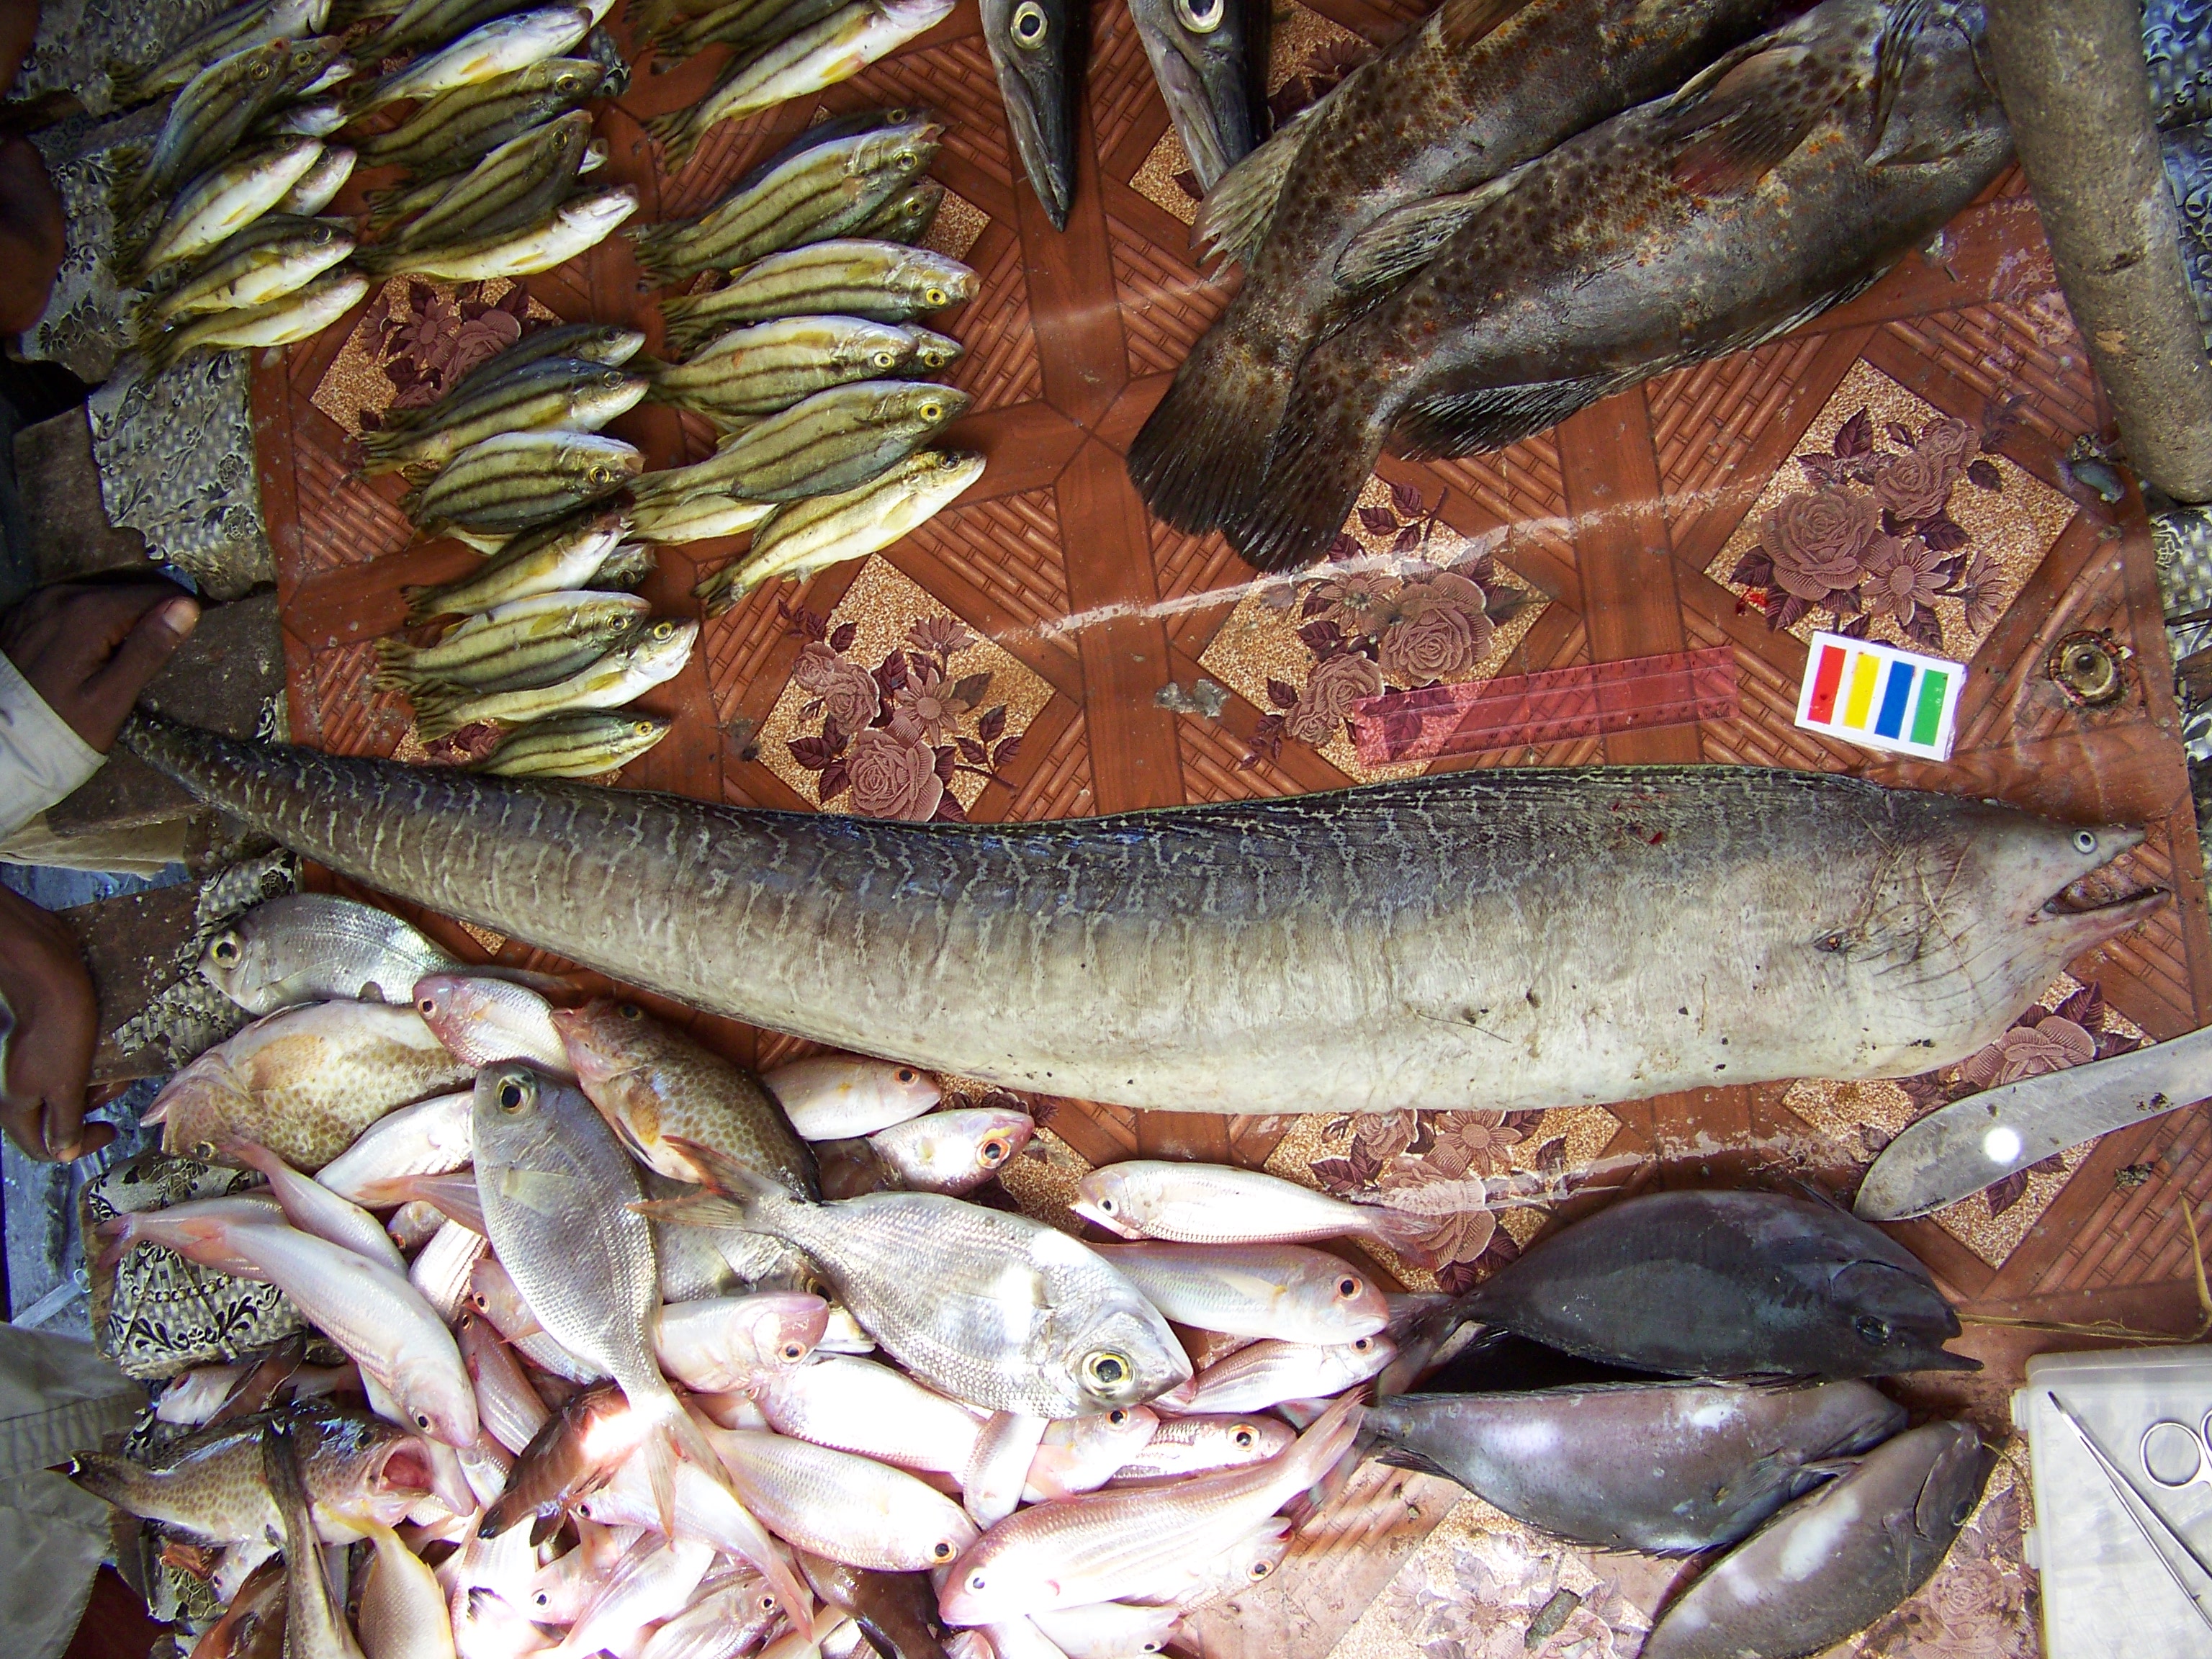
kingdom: Animalia
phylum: Chordata
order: Anguilliformes
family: Muraenidae
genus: Gymnothorax
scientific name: Gymnothorax undulatus
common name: Leopard moray
